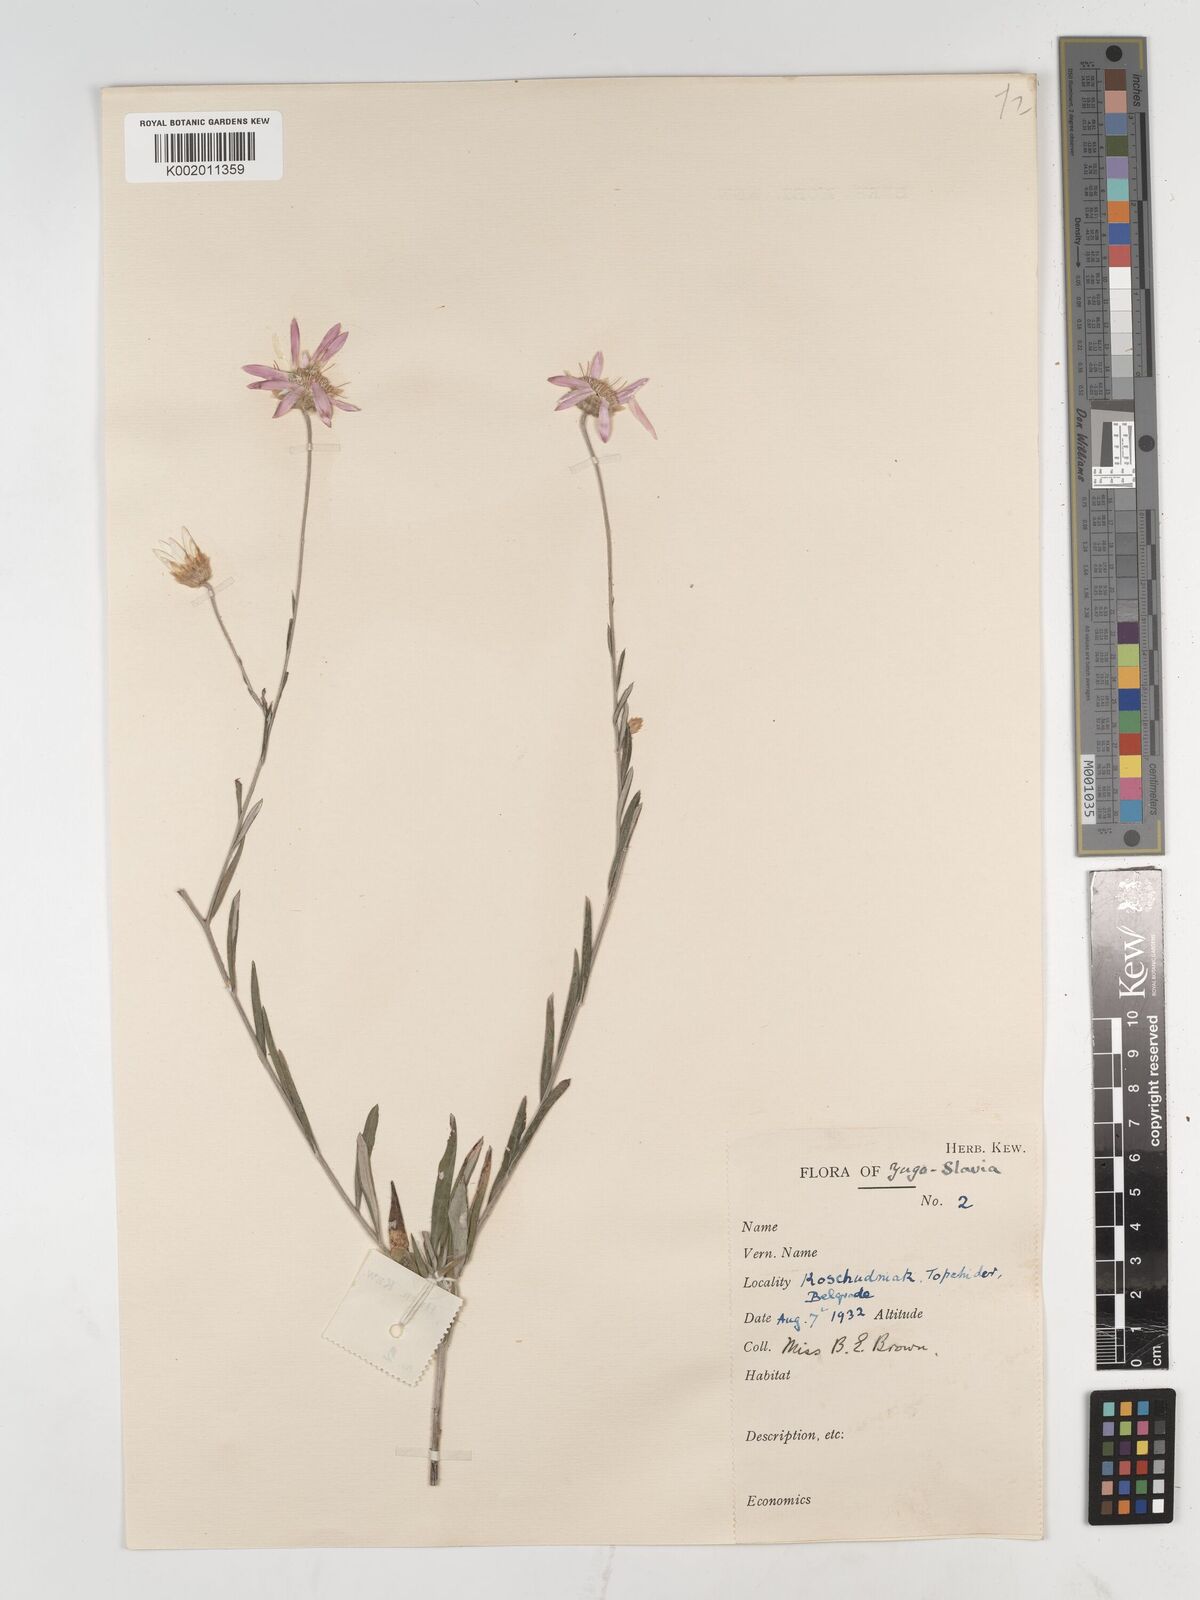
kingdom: Plantae
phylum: Tracheophyta
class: Magnoliopsida
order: Asterales
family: Asteraceae
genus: Xeranthemum
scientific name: Xeranthemum annuum
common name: Immortelle
